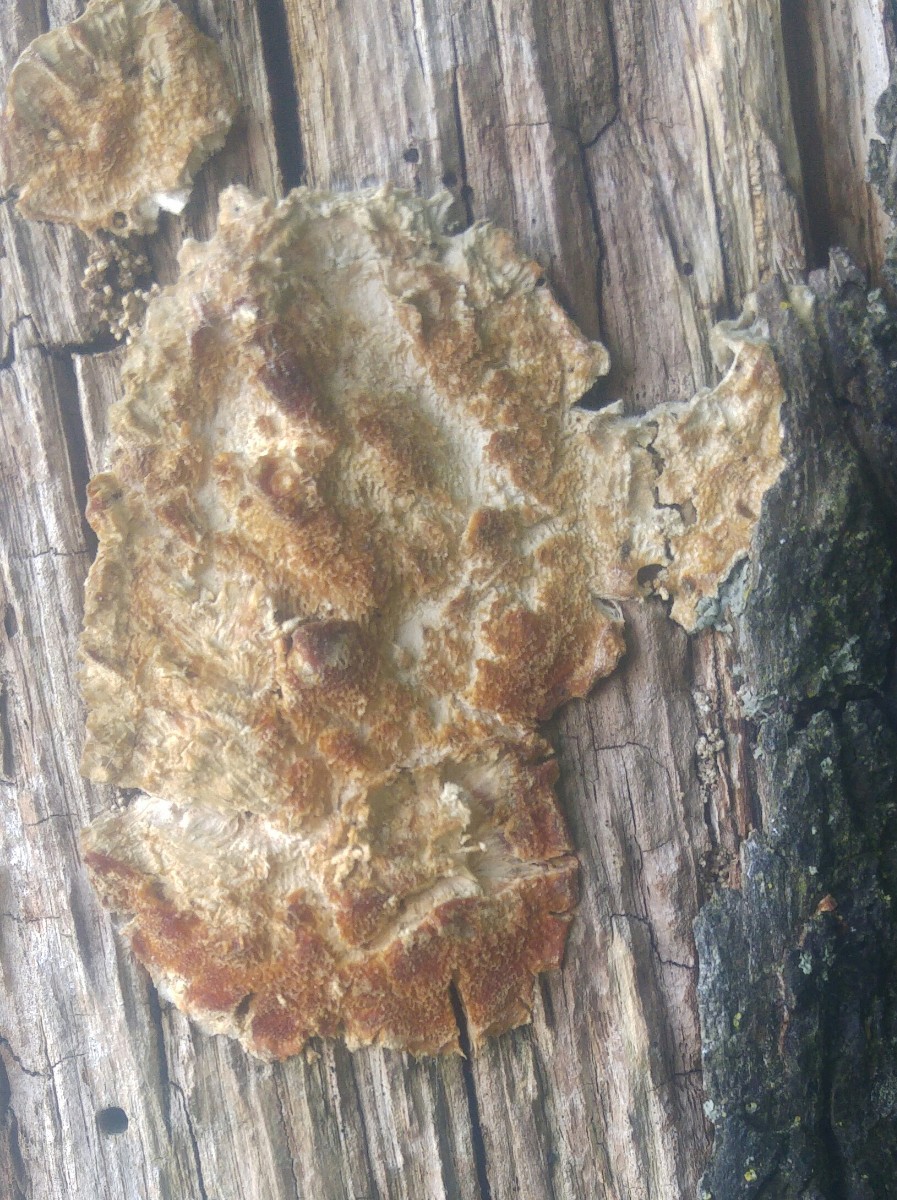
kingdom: Fungi
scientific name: Fungi
